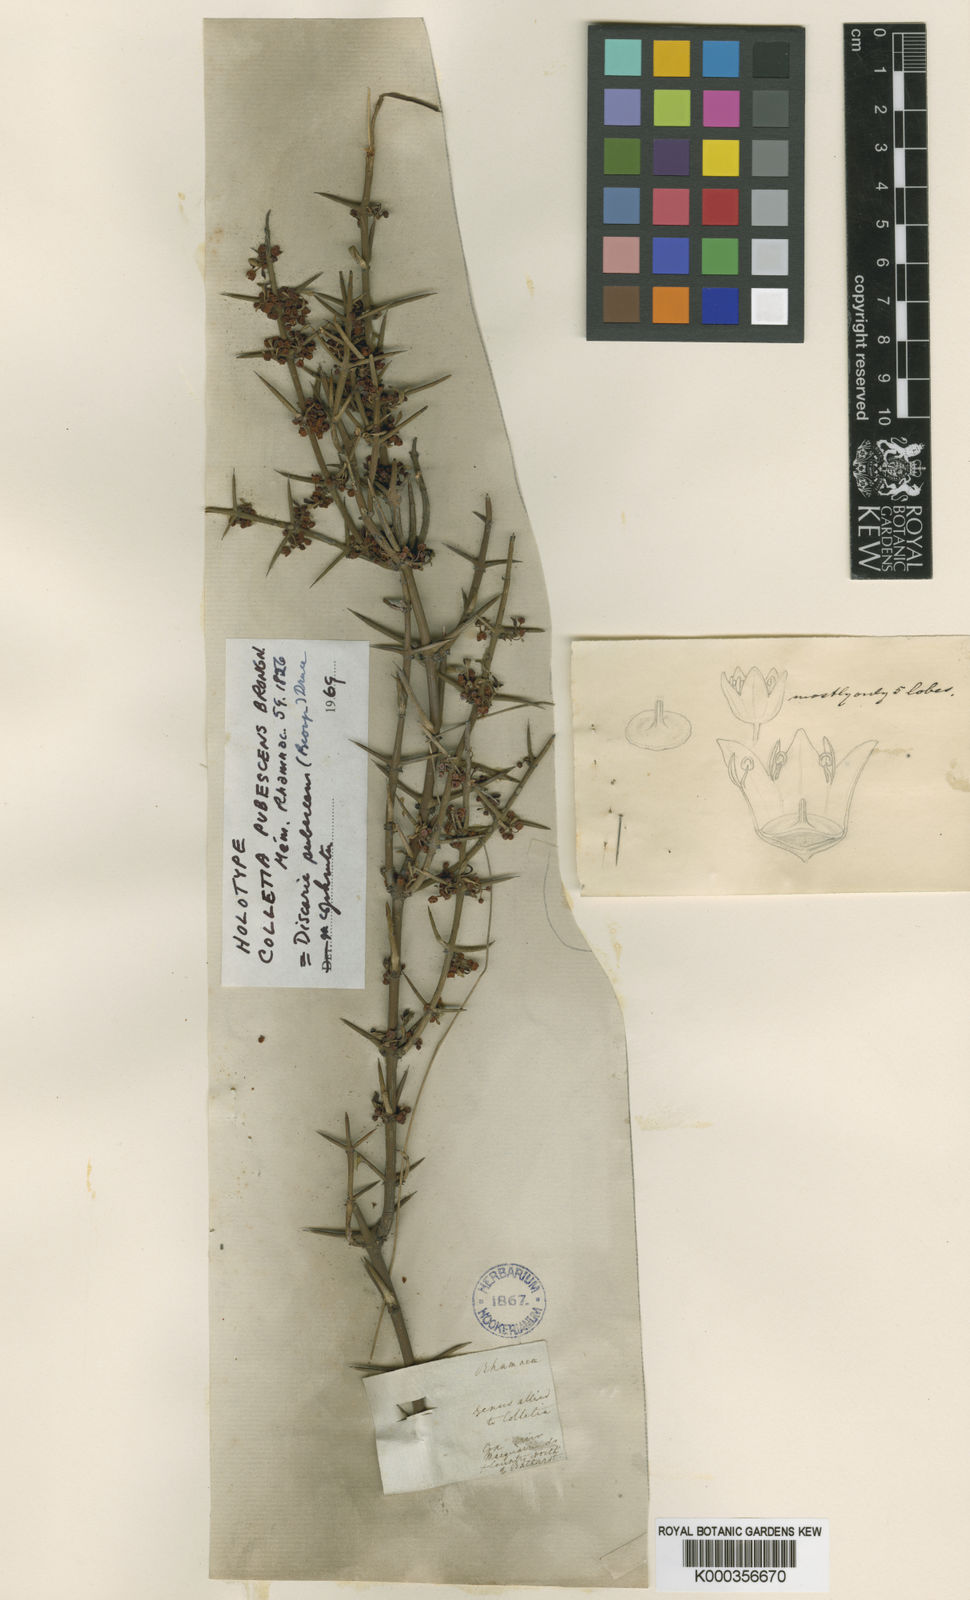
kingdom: Plantae
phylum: Tracheophyta
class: Magnoliopsida
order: Rosales
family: Rhamnaceae
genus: Discaria
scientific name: Discaria pubescens
